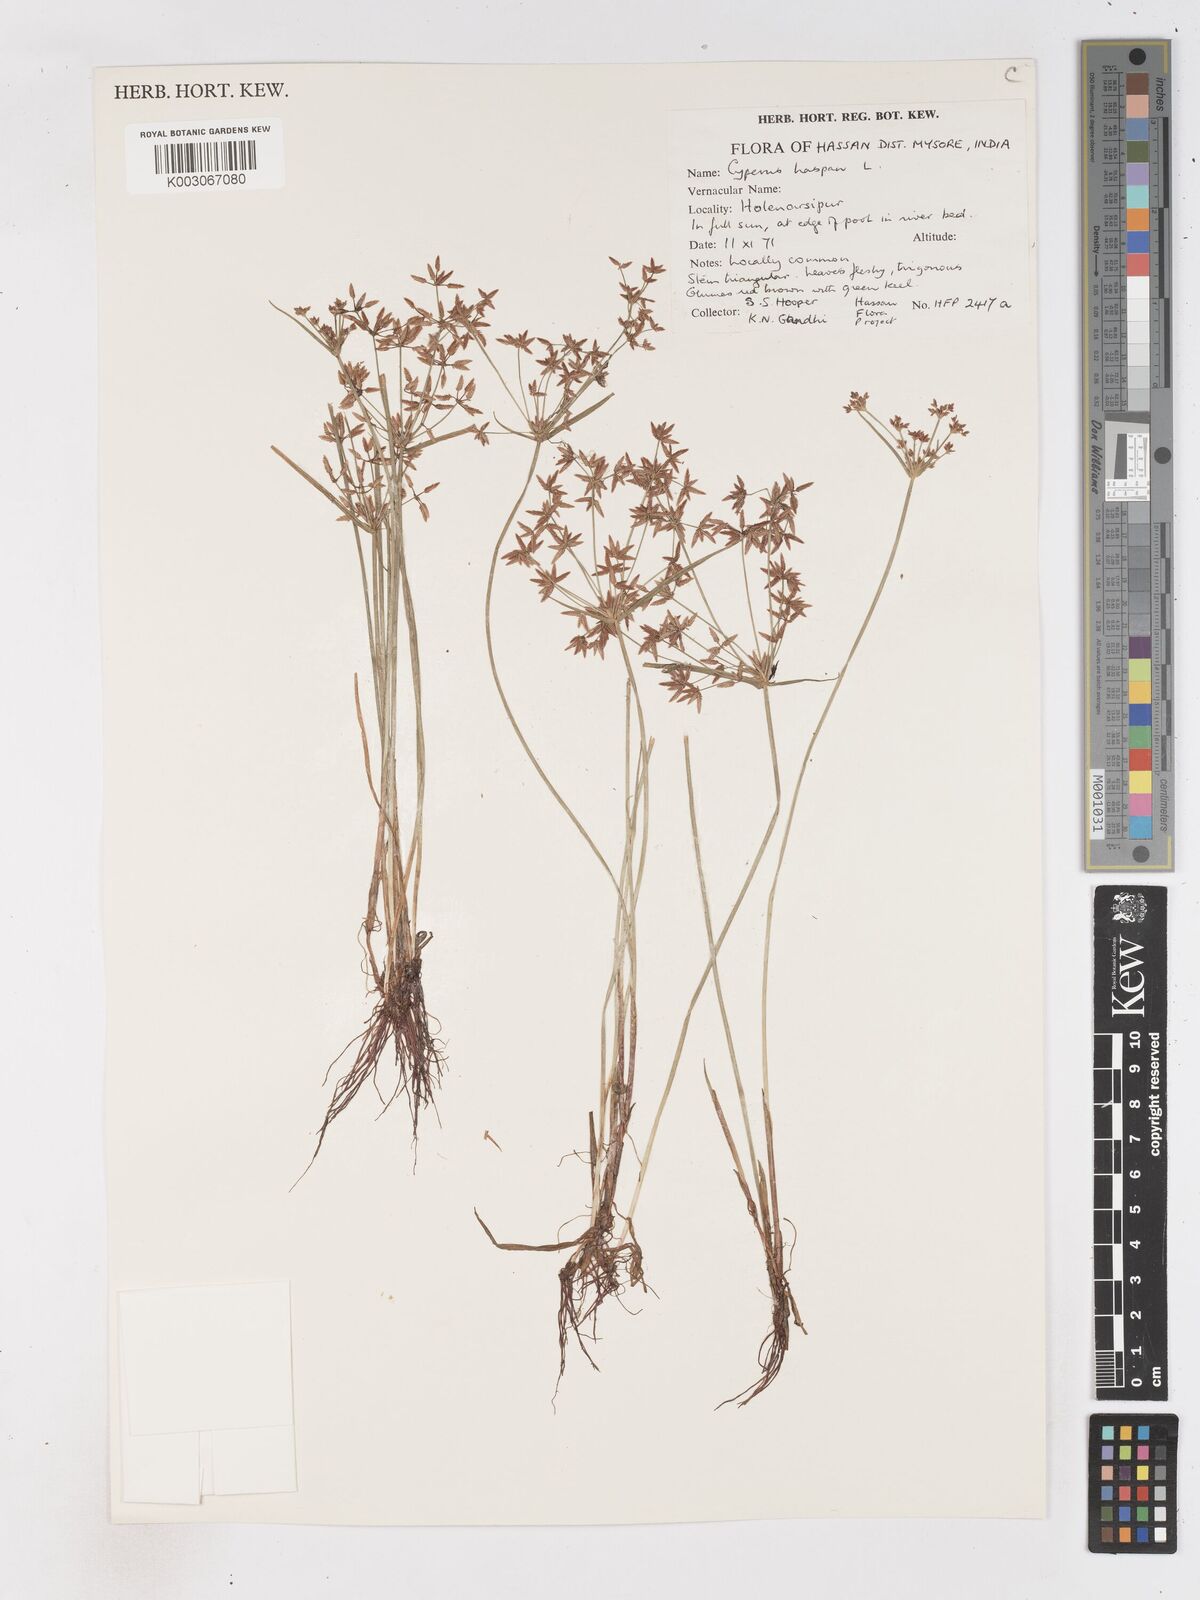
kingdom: Plantae
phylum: Tracheophyta
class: Liliopsida
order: Poales
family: Cyperaceae
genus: Cyperus
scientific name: Cyperus haspan
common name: Haspan flatsedge
